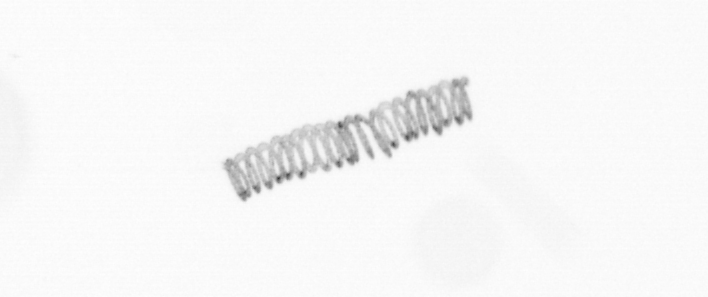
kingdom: Chromista
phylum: Ochrophyta
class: Bacillariophyceae
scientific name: Bacillariophyceae
